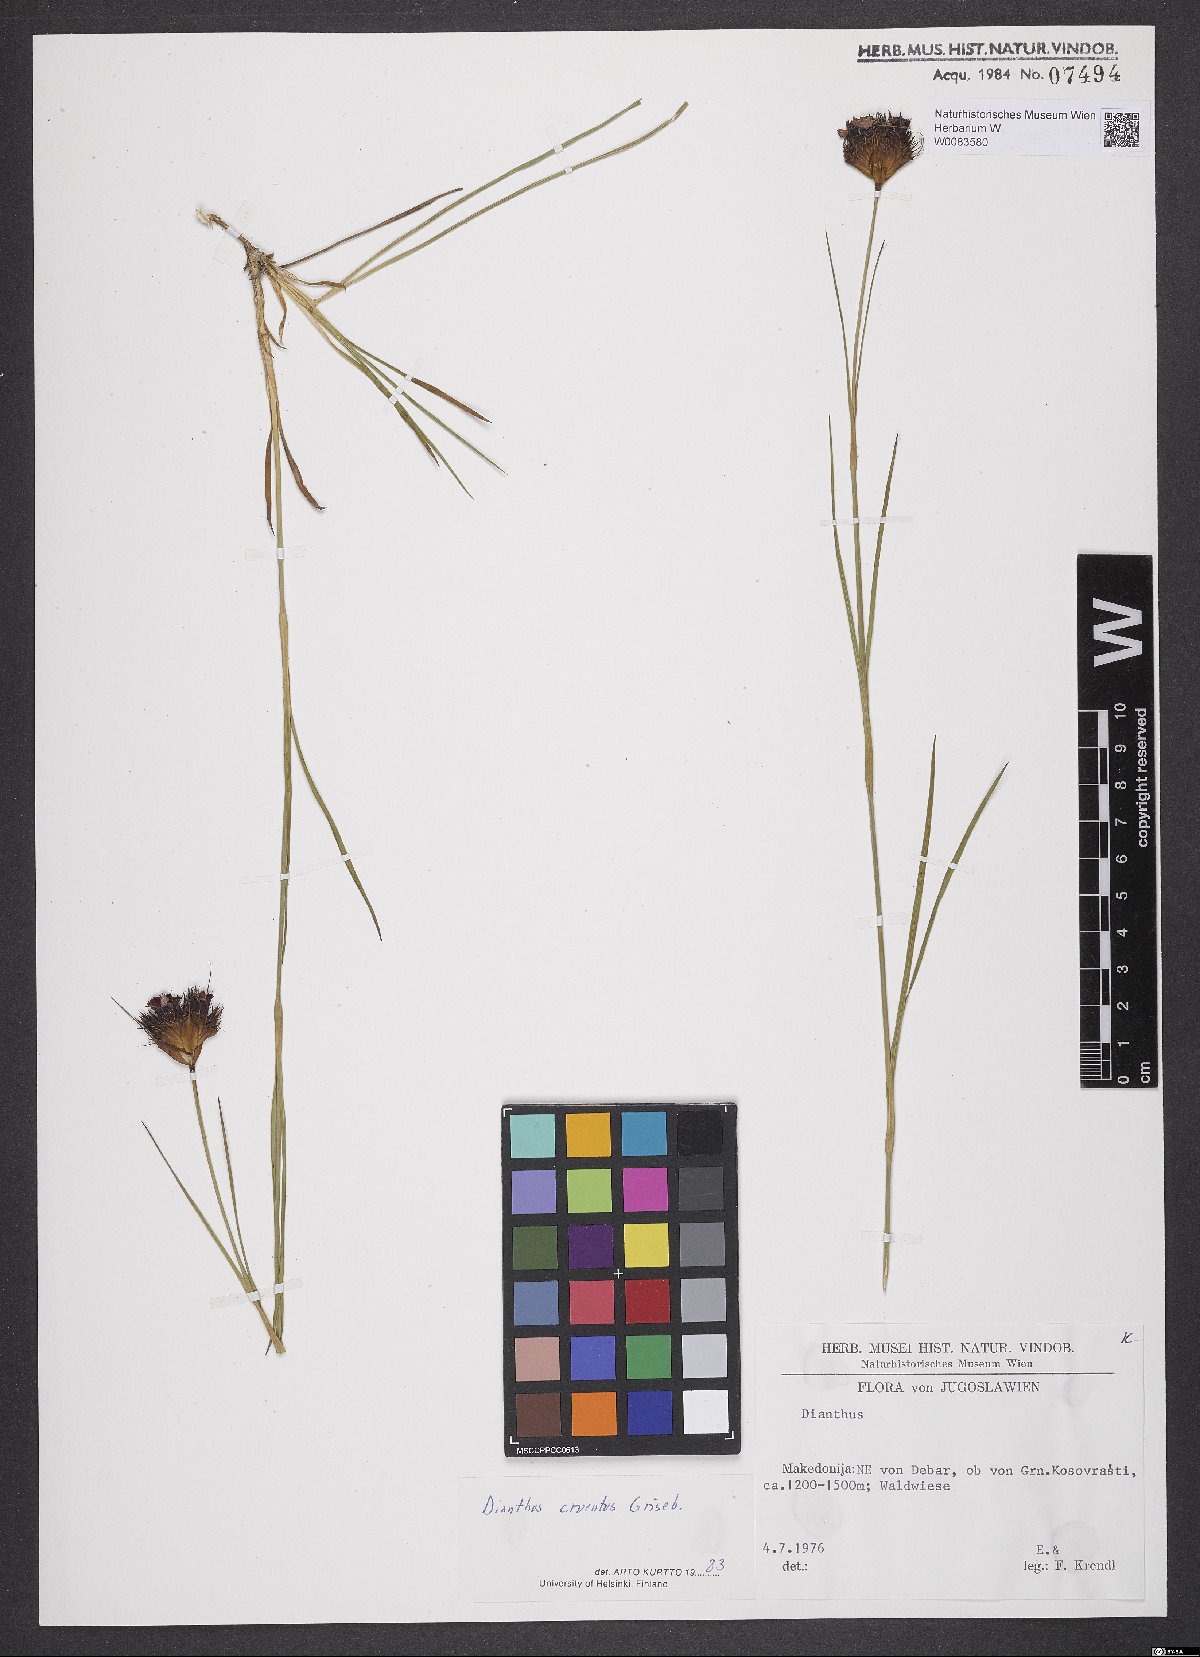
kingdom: Plantae
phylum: Tracheophyta
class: Magnoliopsida
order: Caryophyllales
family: Caryophyllaceae
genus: Dianthus
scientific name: Dianthus cruentus
